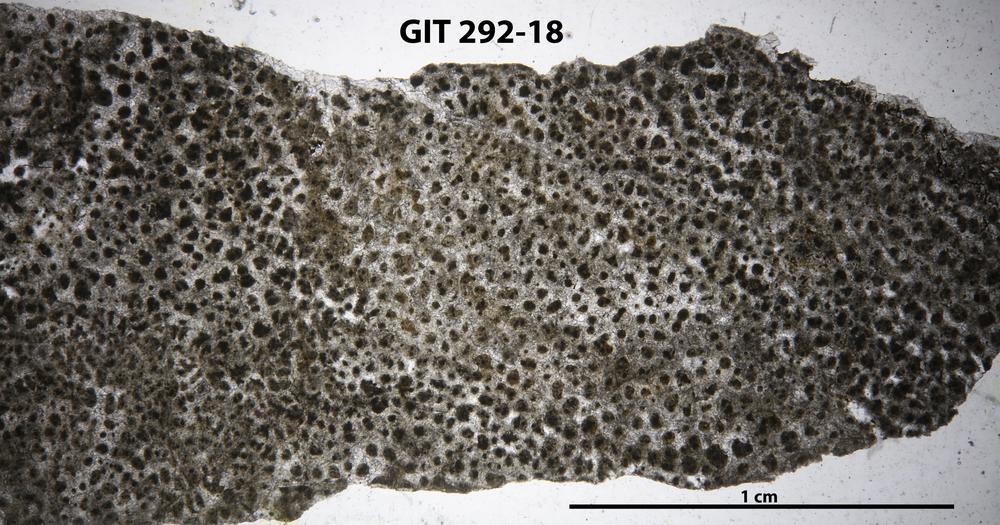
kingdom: Animalia
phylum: Porifera
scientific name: Porifera
